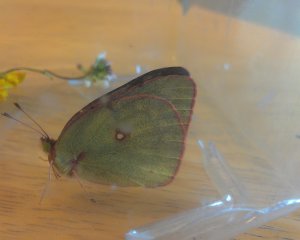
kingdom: Animalia
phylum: Arthropoda
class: Insecta
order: Lepidoptera
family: Pieridae
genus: Colias
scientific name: Colias philodice
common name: Clouded Sulphur
